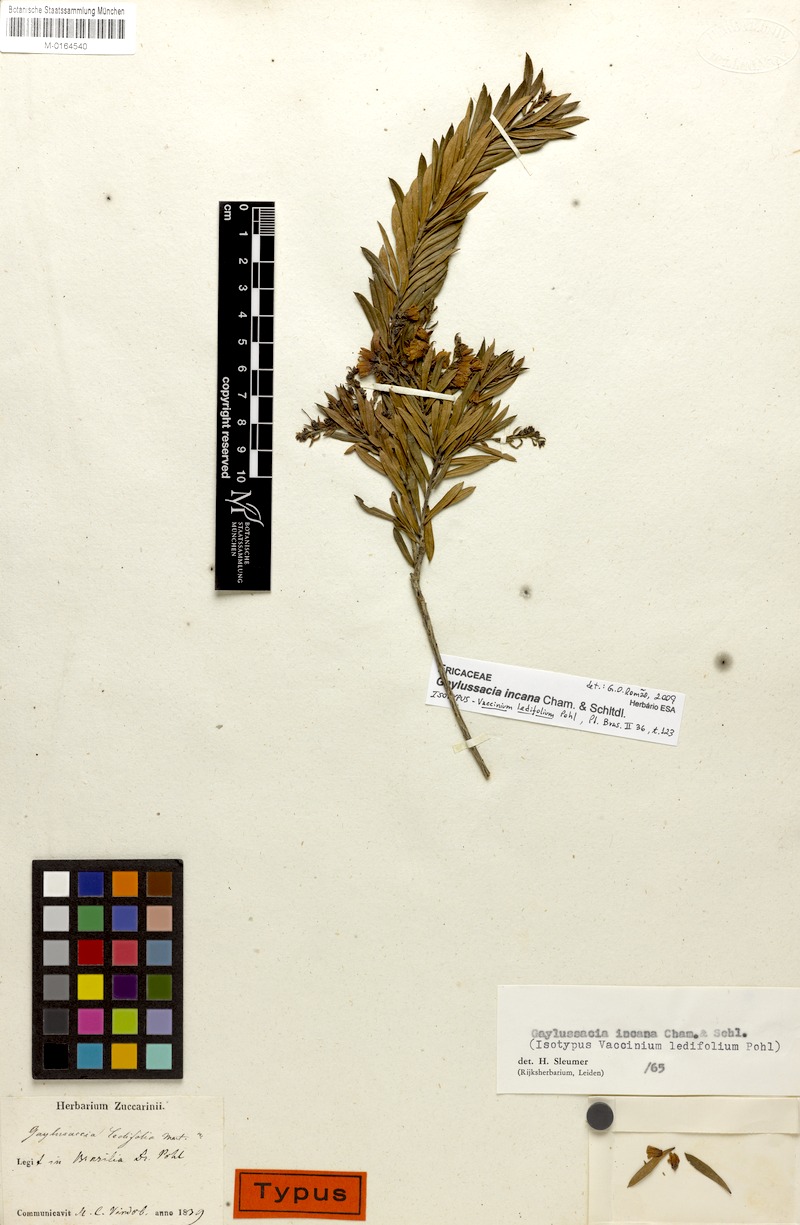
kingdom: Plantae
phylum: Tracheophyta
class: Magnoliopsida
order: Ericales
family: Ericaceae
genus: Gaylussacia
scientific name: Gaylussacia incana
